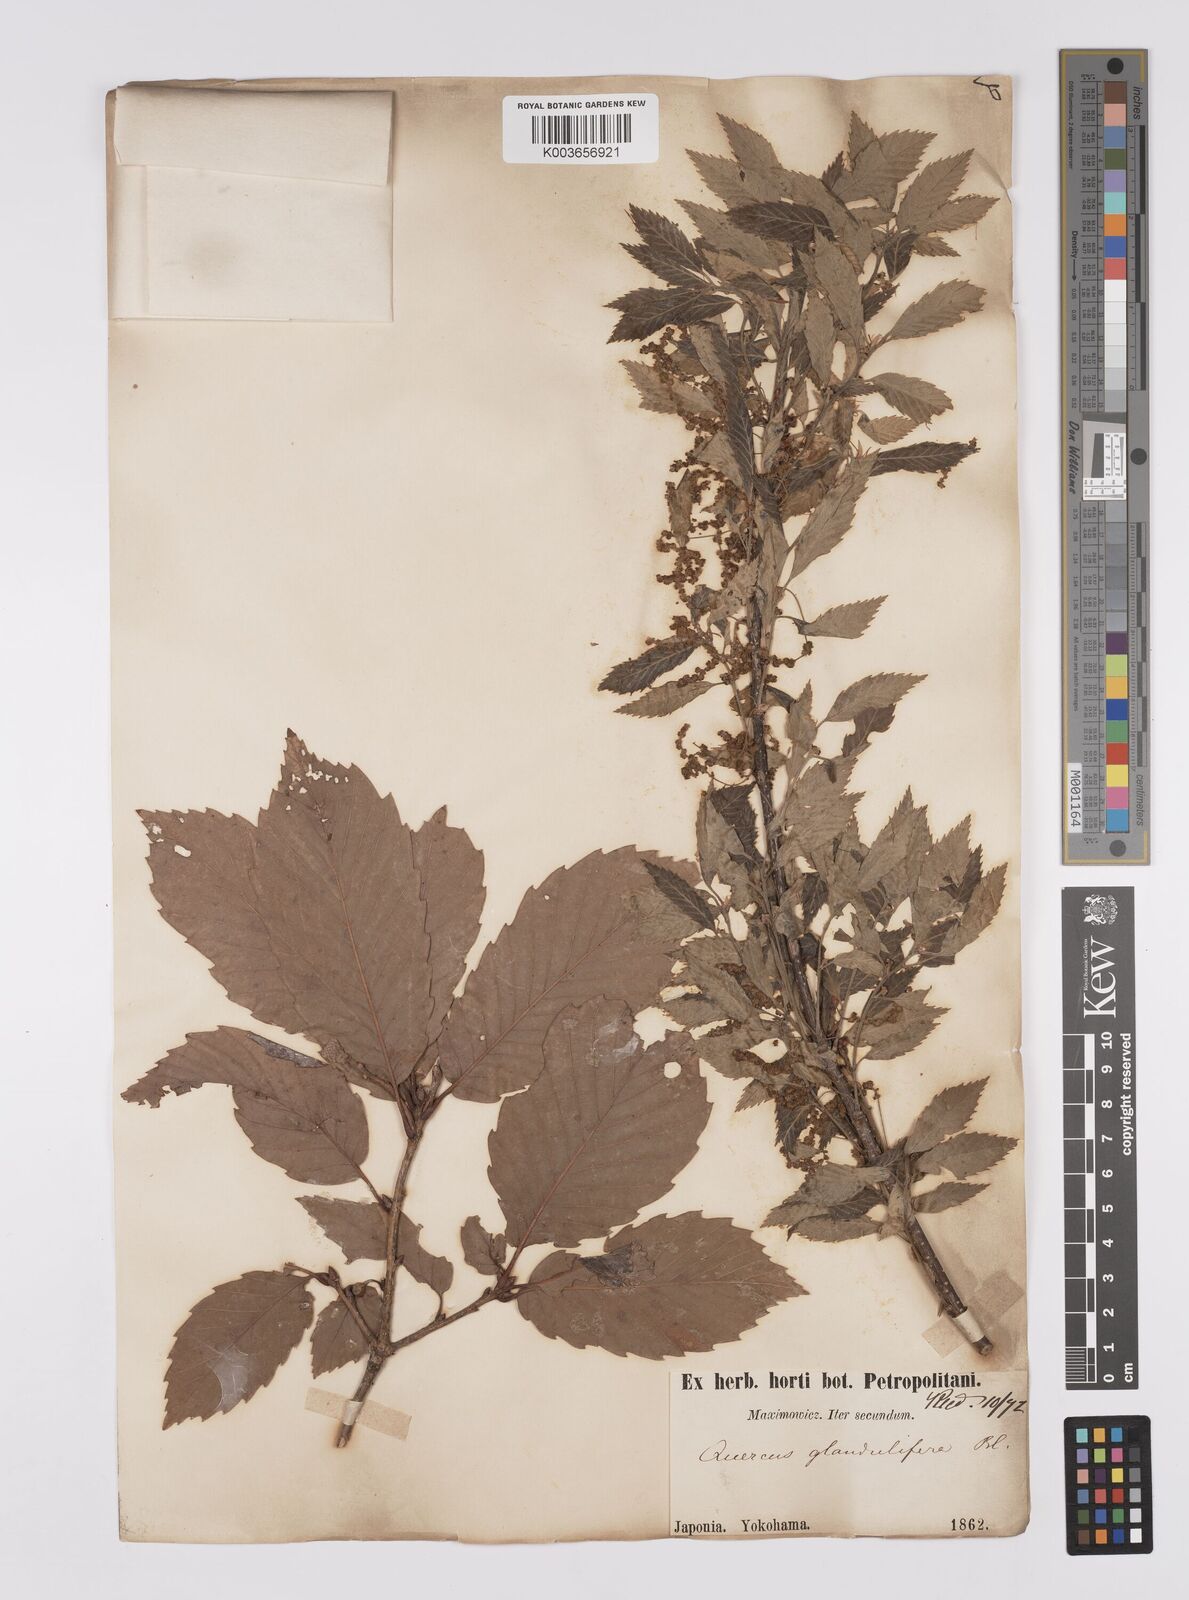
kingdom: Plantae
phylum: Tracheophyta
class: Magnoliopsida
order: Fagales
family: Fagaceae
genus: Quercus
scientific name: Quercus
